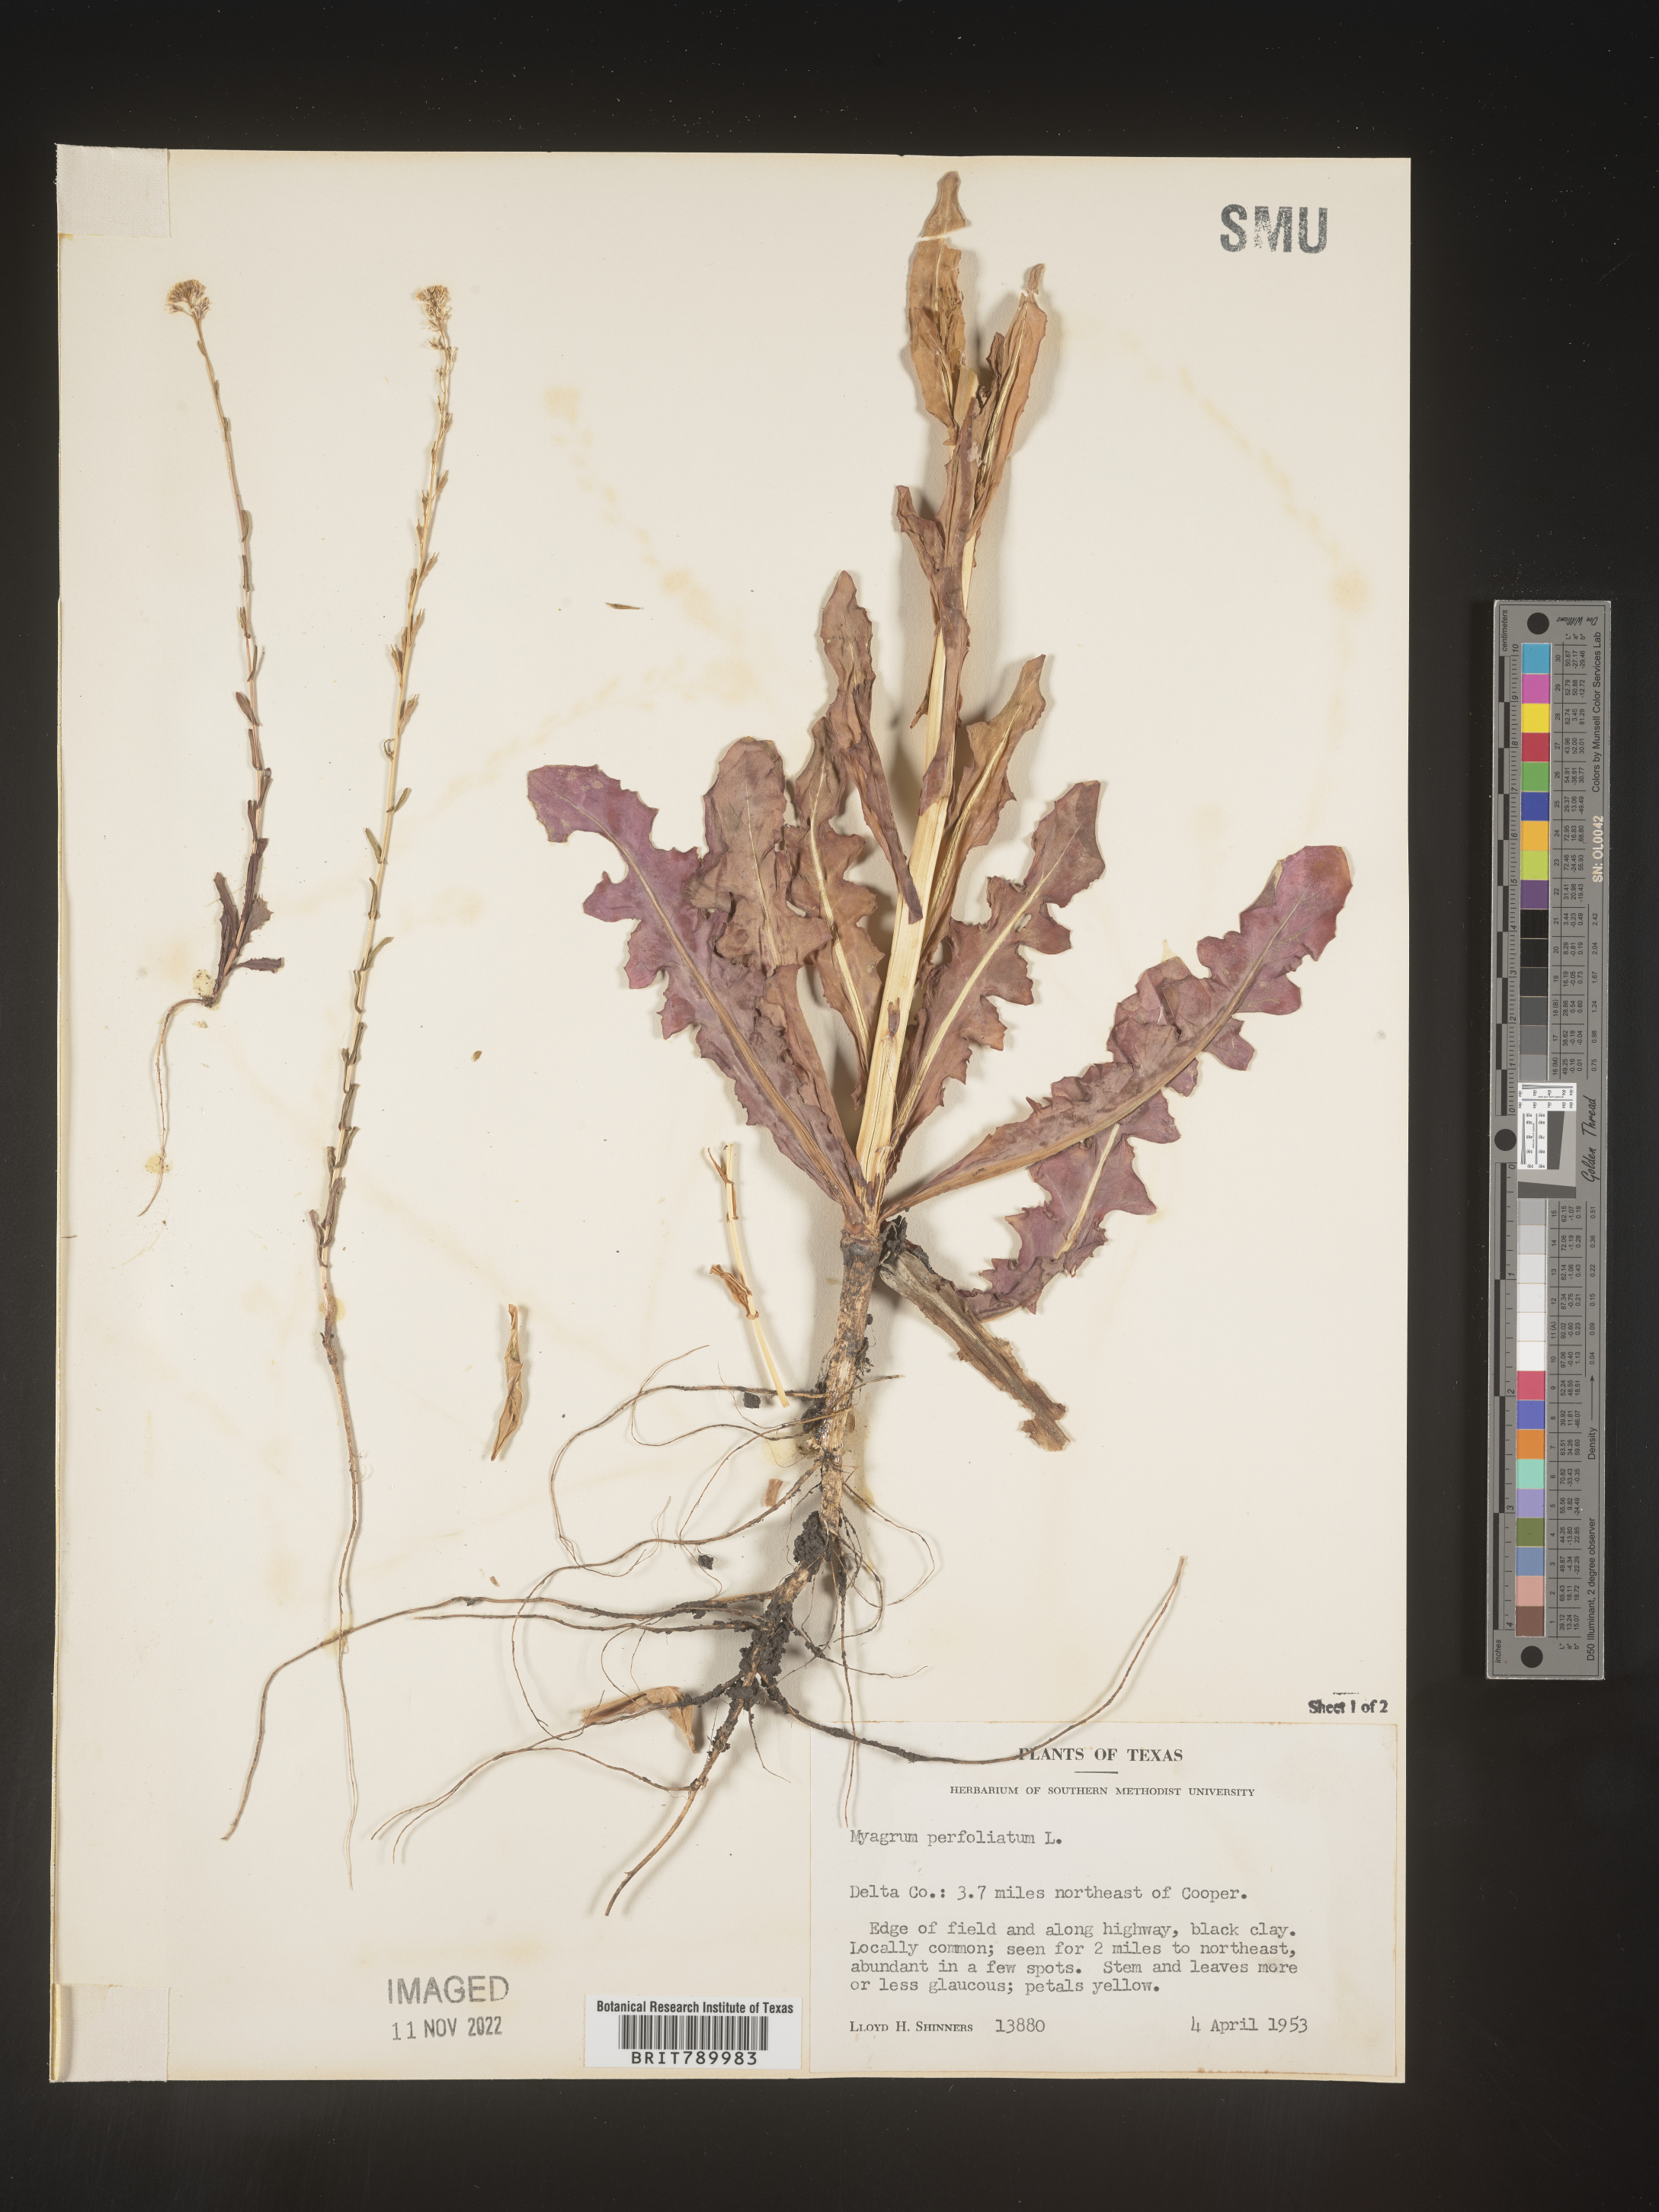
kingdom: Plantae
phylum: Tracheophyta
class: Magnoliopsida
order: Brassicales
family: Brassicaceae
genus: Myagrum
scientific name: Myagrum perfoliatum
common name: Mitre cress
